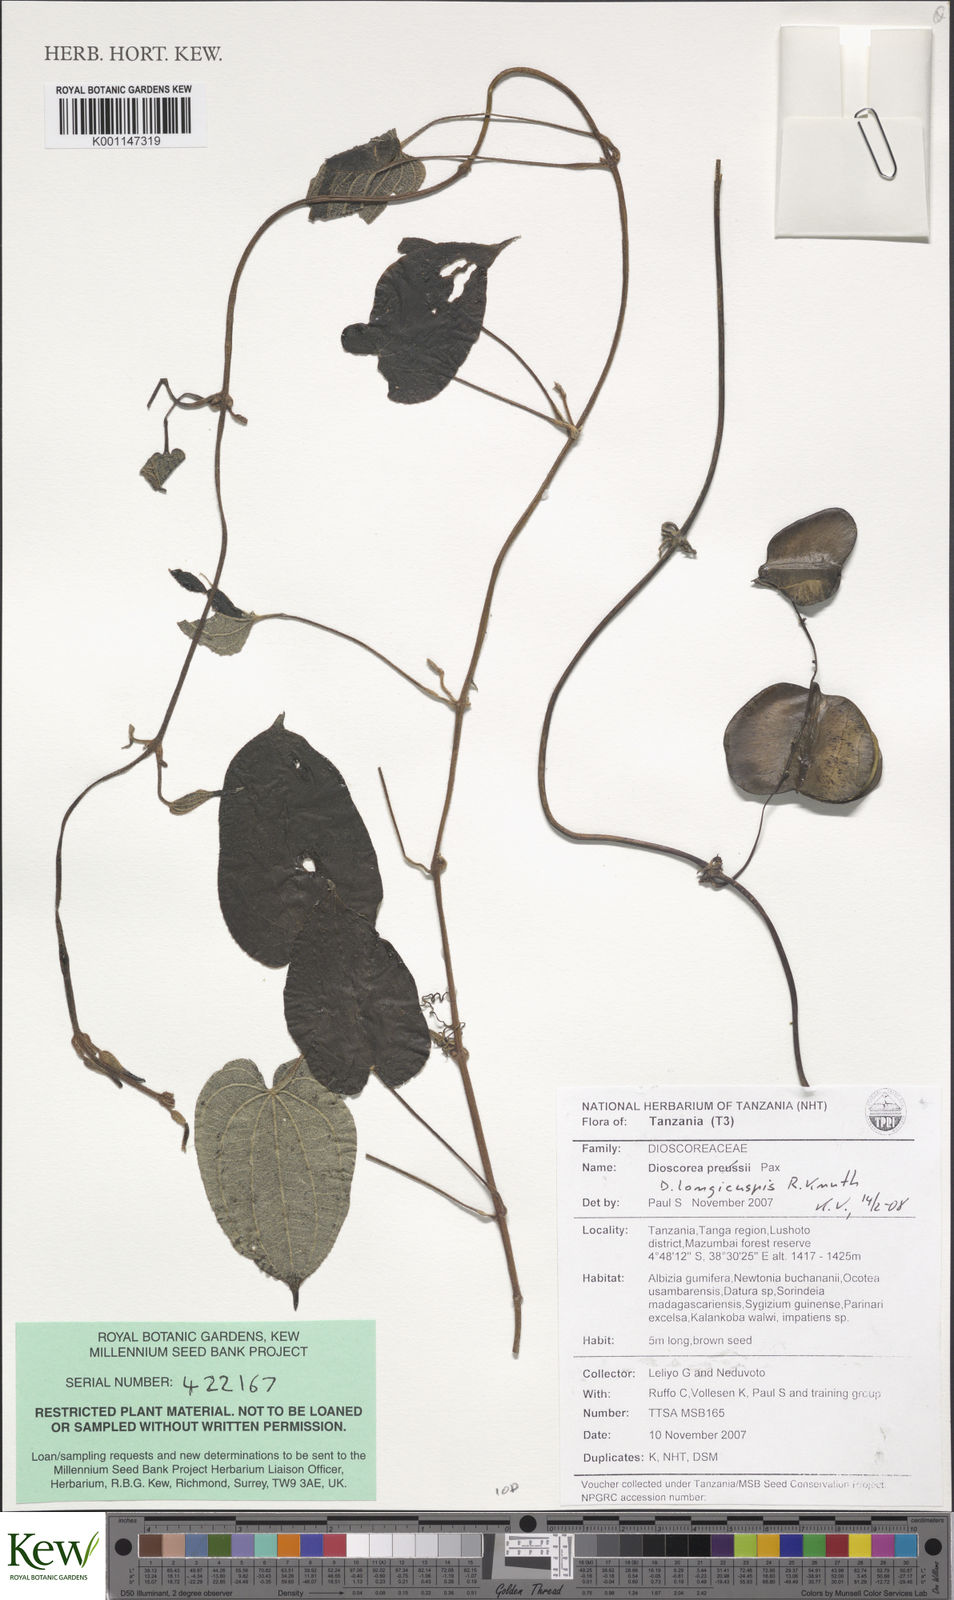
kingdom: Plantae
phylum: Tracheophyta
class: Liliopsida
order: Dioscoreales
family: Dioscoreaceae
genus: Dioscorea
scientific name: Dioscorea longicuspis
